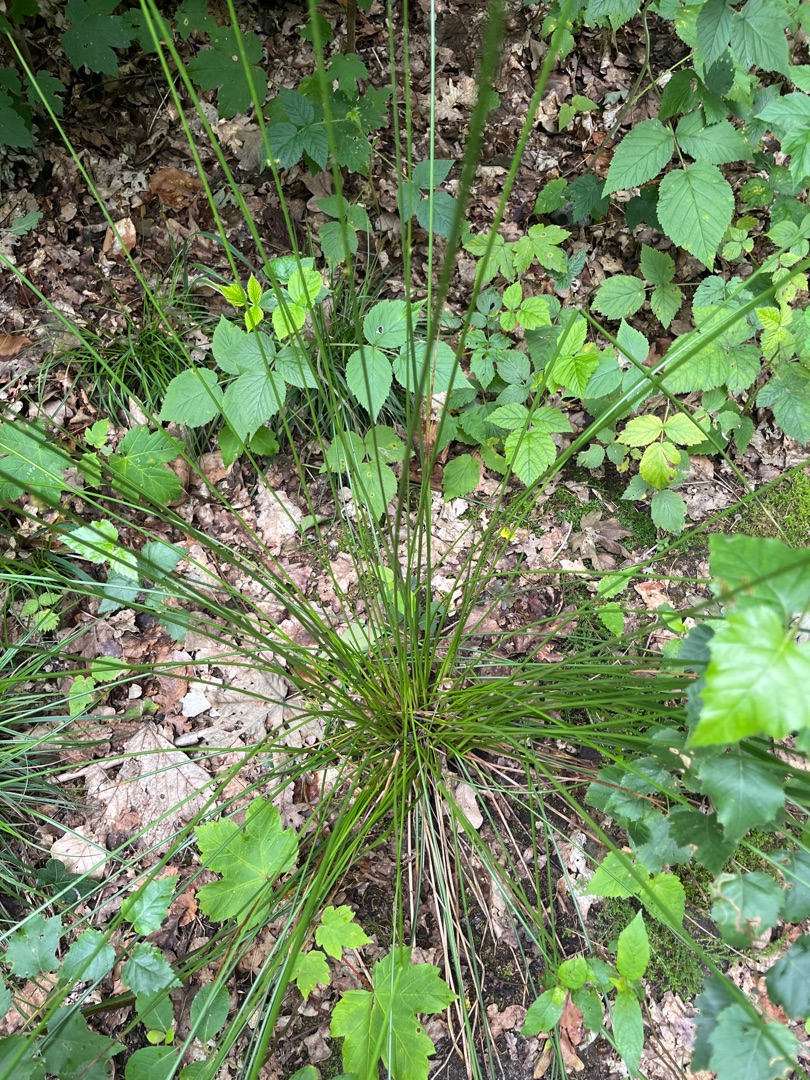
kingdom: Plantae
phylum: Tracheophyta
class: Liliopsida
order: Poales
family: Juncaceae
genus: Juncus
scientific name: Juncus effusus
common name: Lyse-siv
